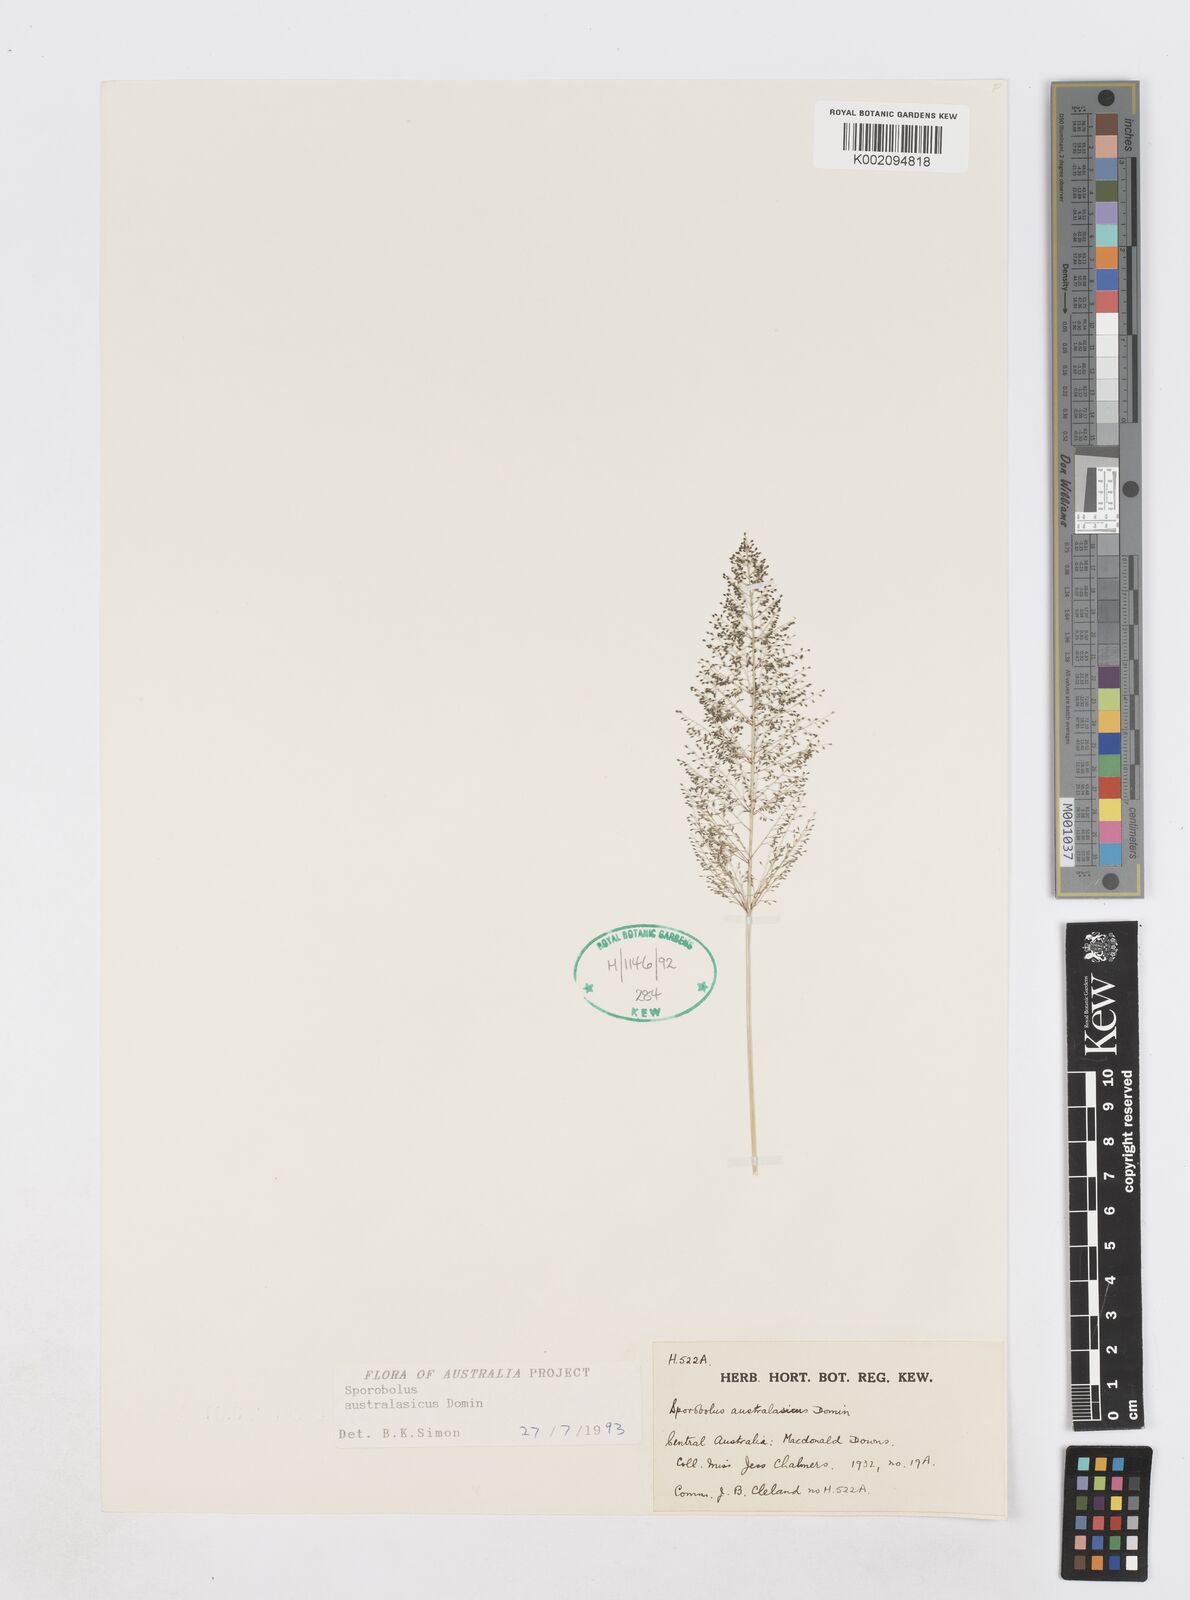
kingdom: Plantae
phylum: Tracheophyta
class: Liliopsida
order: Poales
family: Poaceae
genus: Sporobolus
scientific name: Sporobolus australasicus
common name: Australian dropseed
